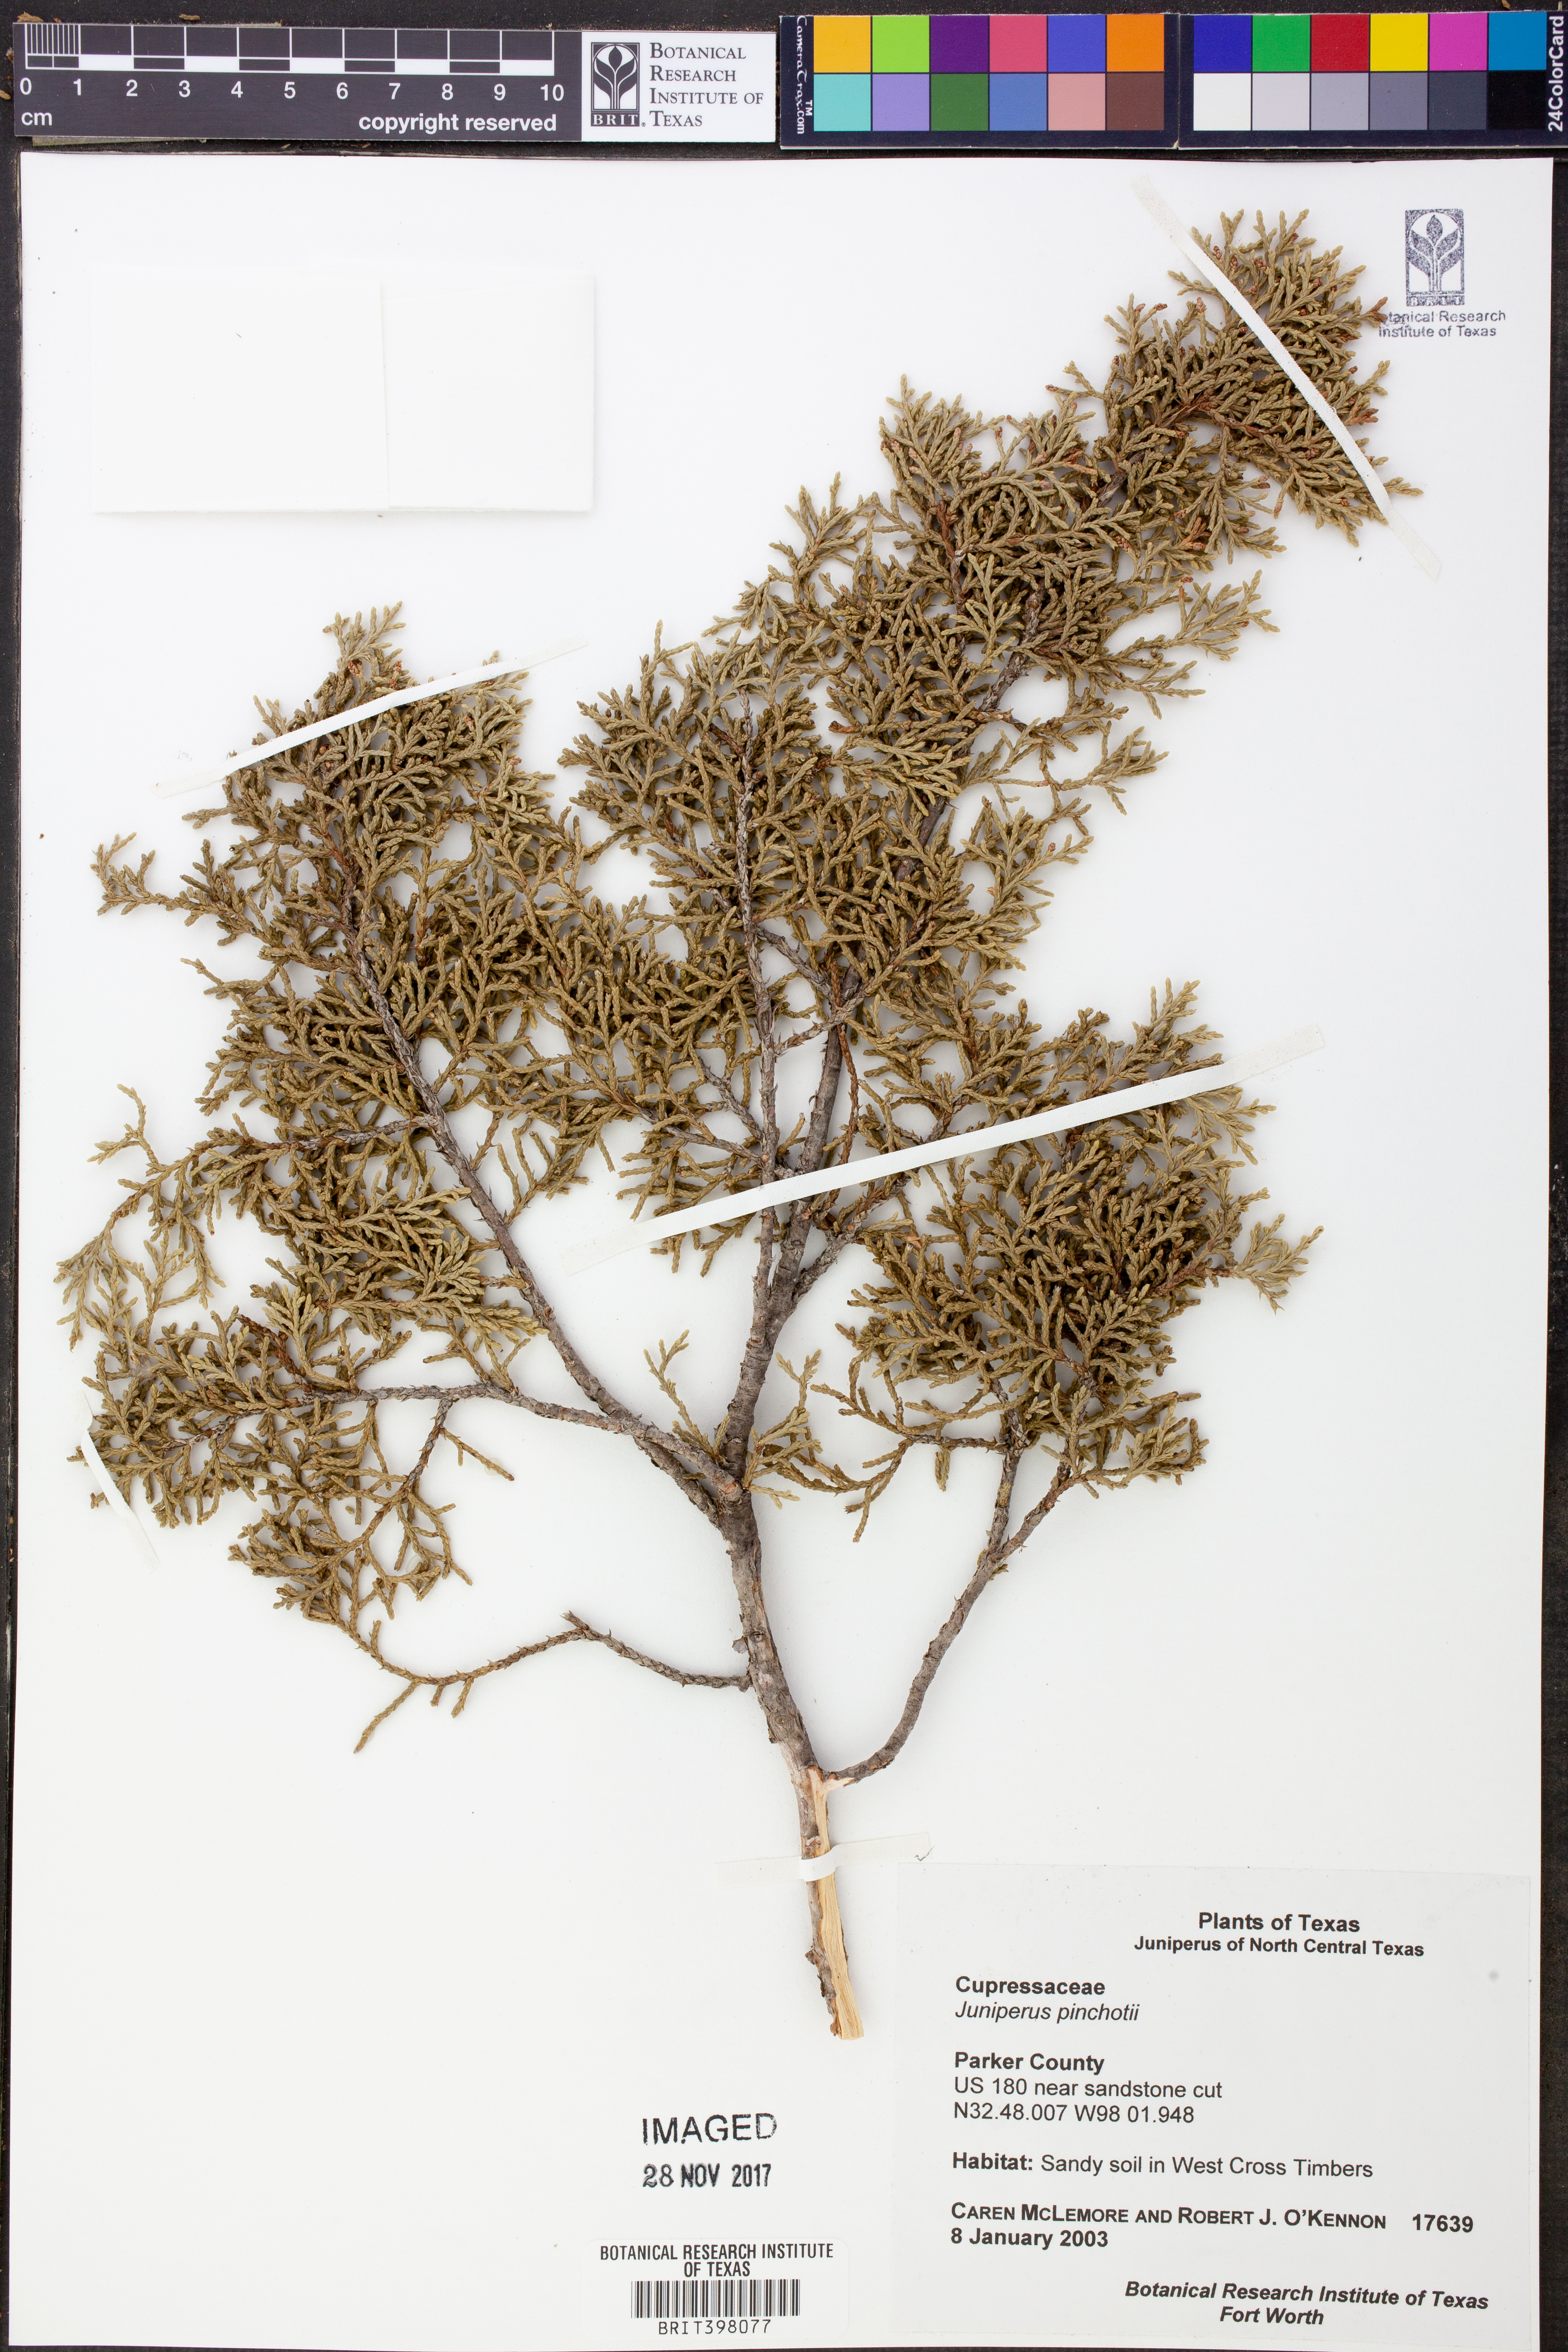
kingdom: Plantae
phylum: Tracheophyta
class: Pinopsida
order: Pinales
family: Cupressaceae
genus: Juniperus
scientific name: Juniperus pinchotii
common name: Pinchot juniper
